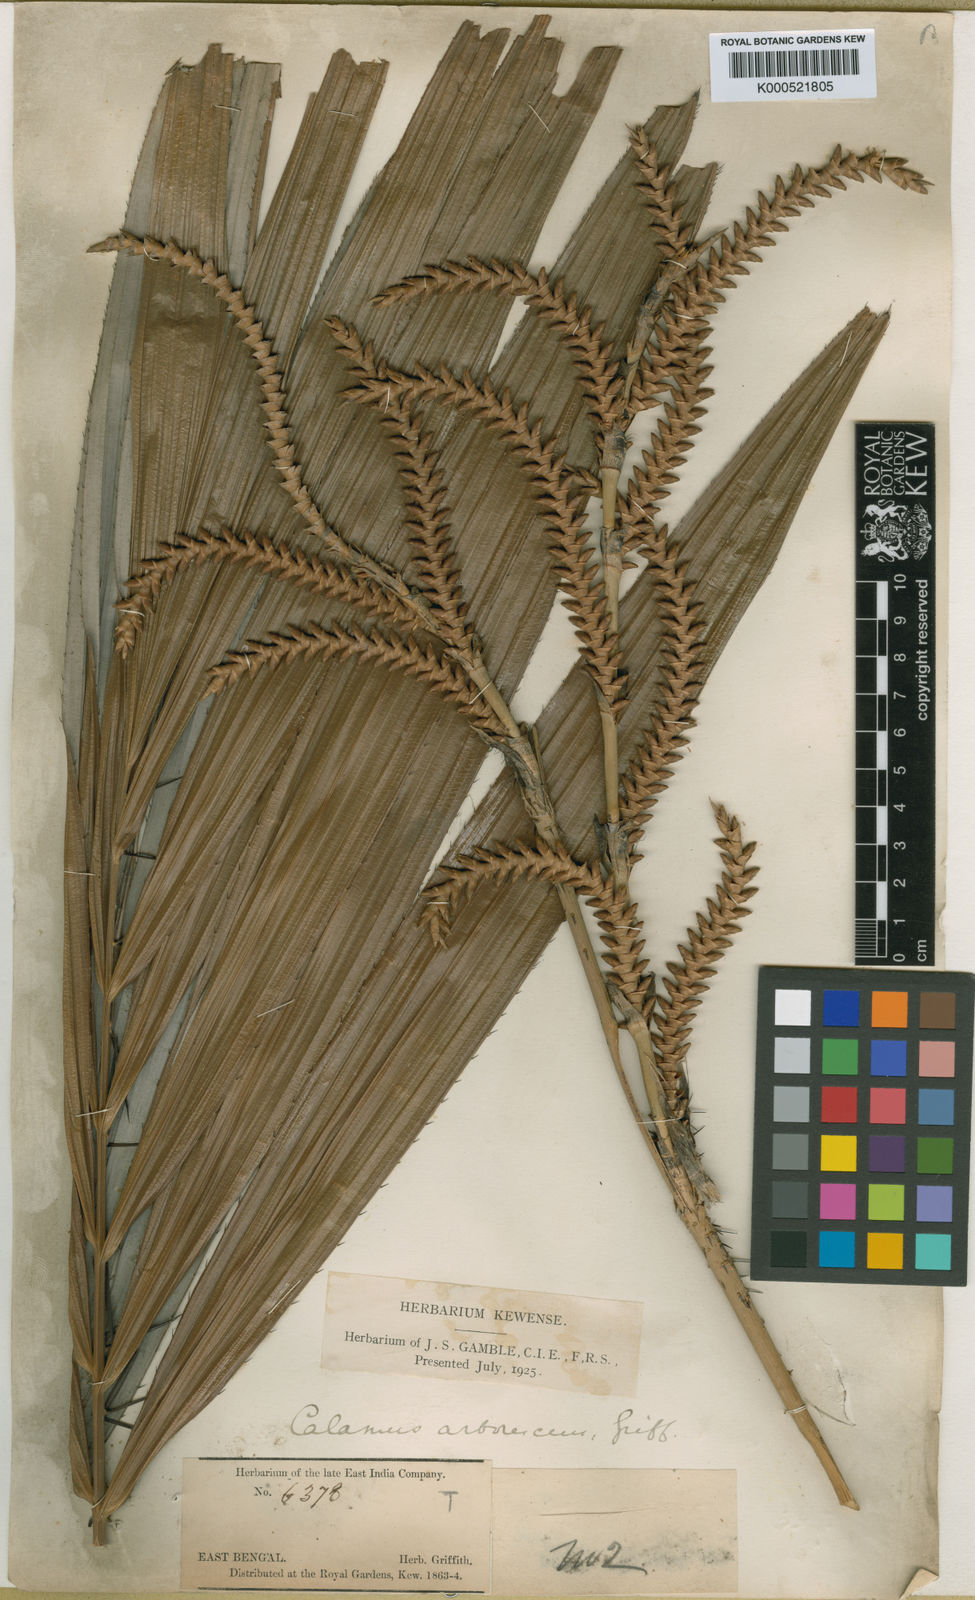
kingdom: Plantae
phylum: Tracheophyta
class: Liliopsida
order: Arecales
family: Arecaceae
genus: Calamus
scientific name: Calamus arborescens
